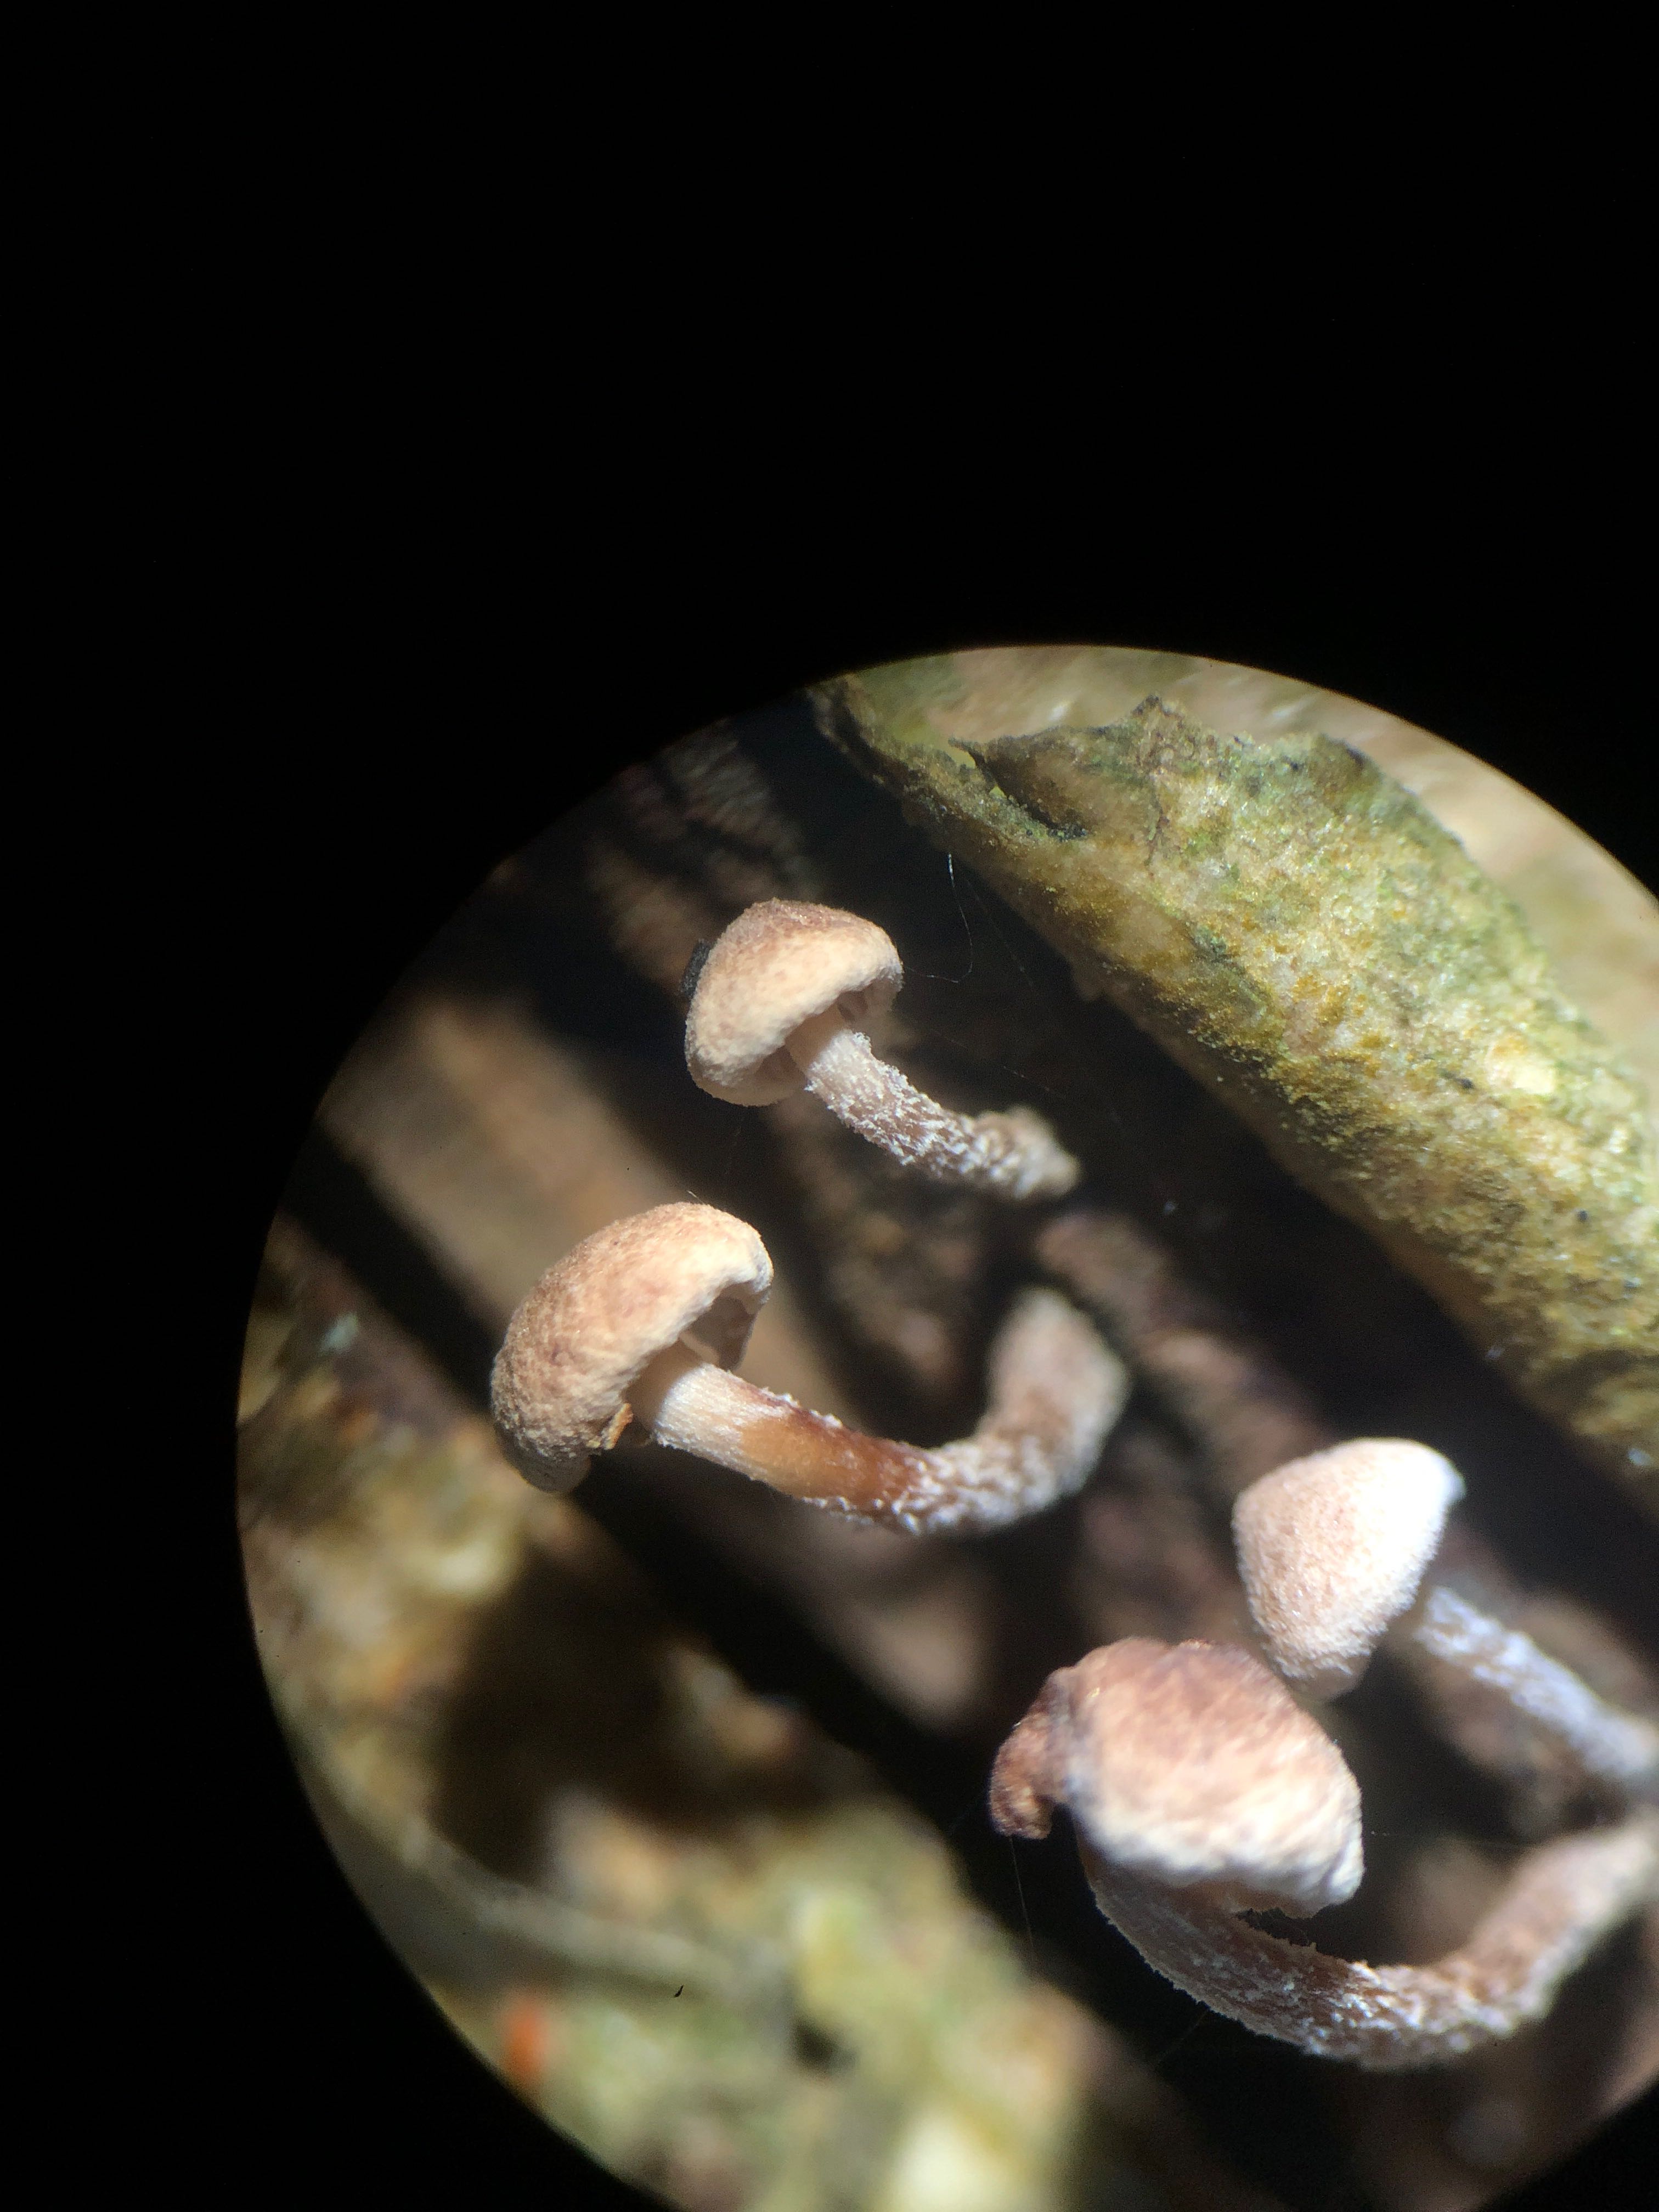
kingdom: Fungi
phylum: Basidiomycota
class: Agaricomycetes
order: Agaricales
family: Omphalotaceae
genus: Collybiopsis
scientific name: Collybiopsis ramealis
